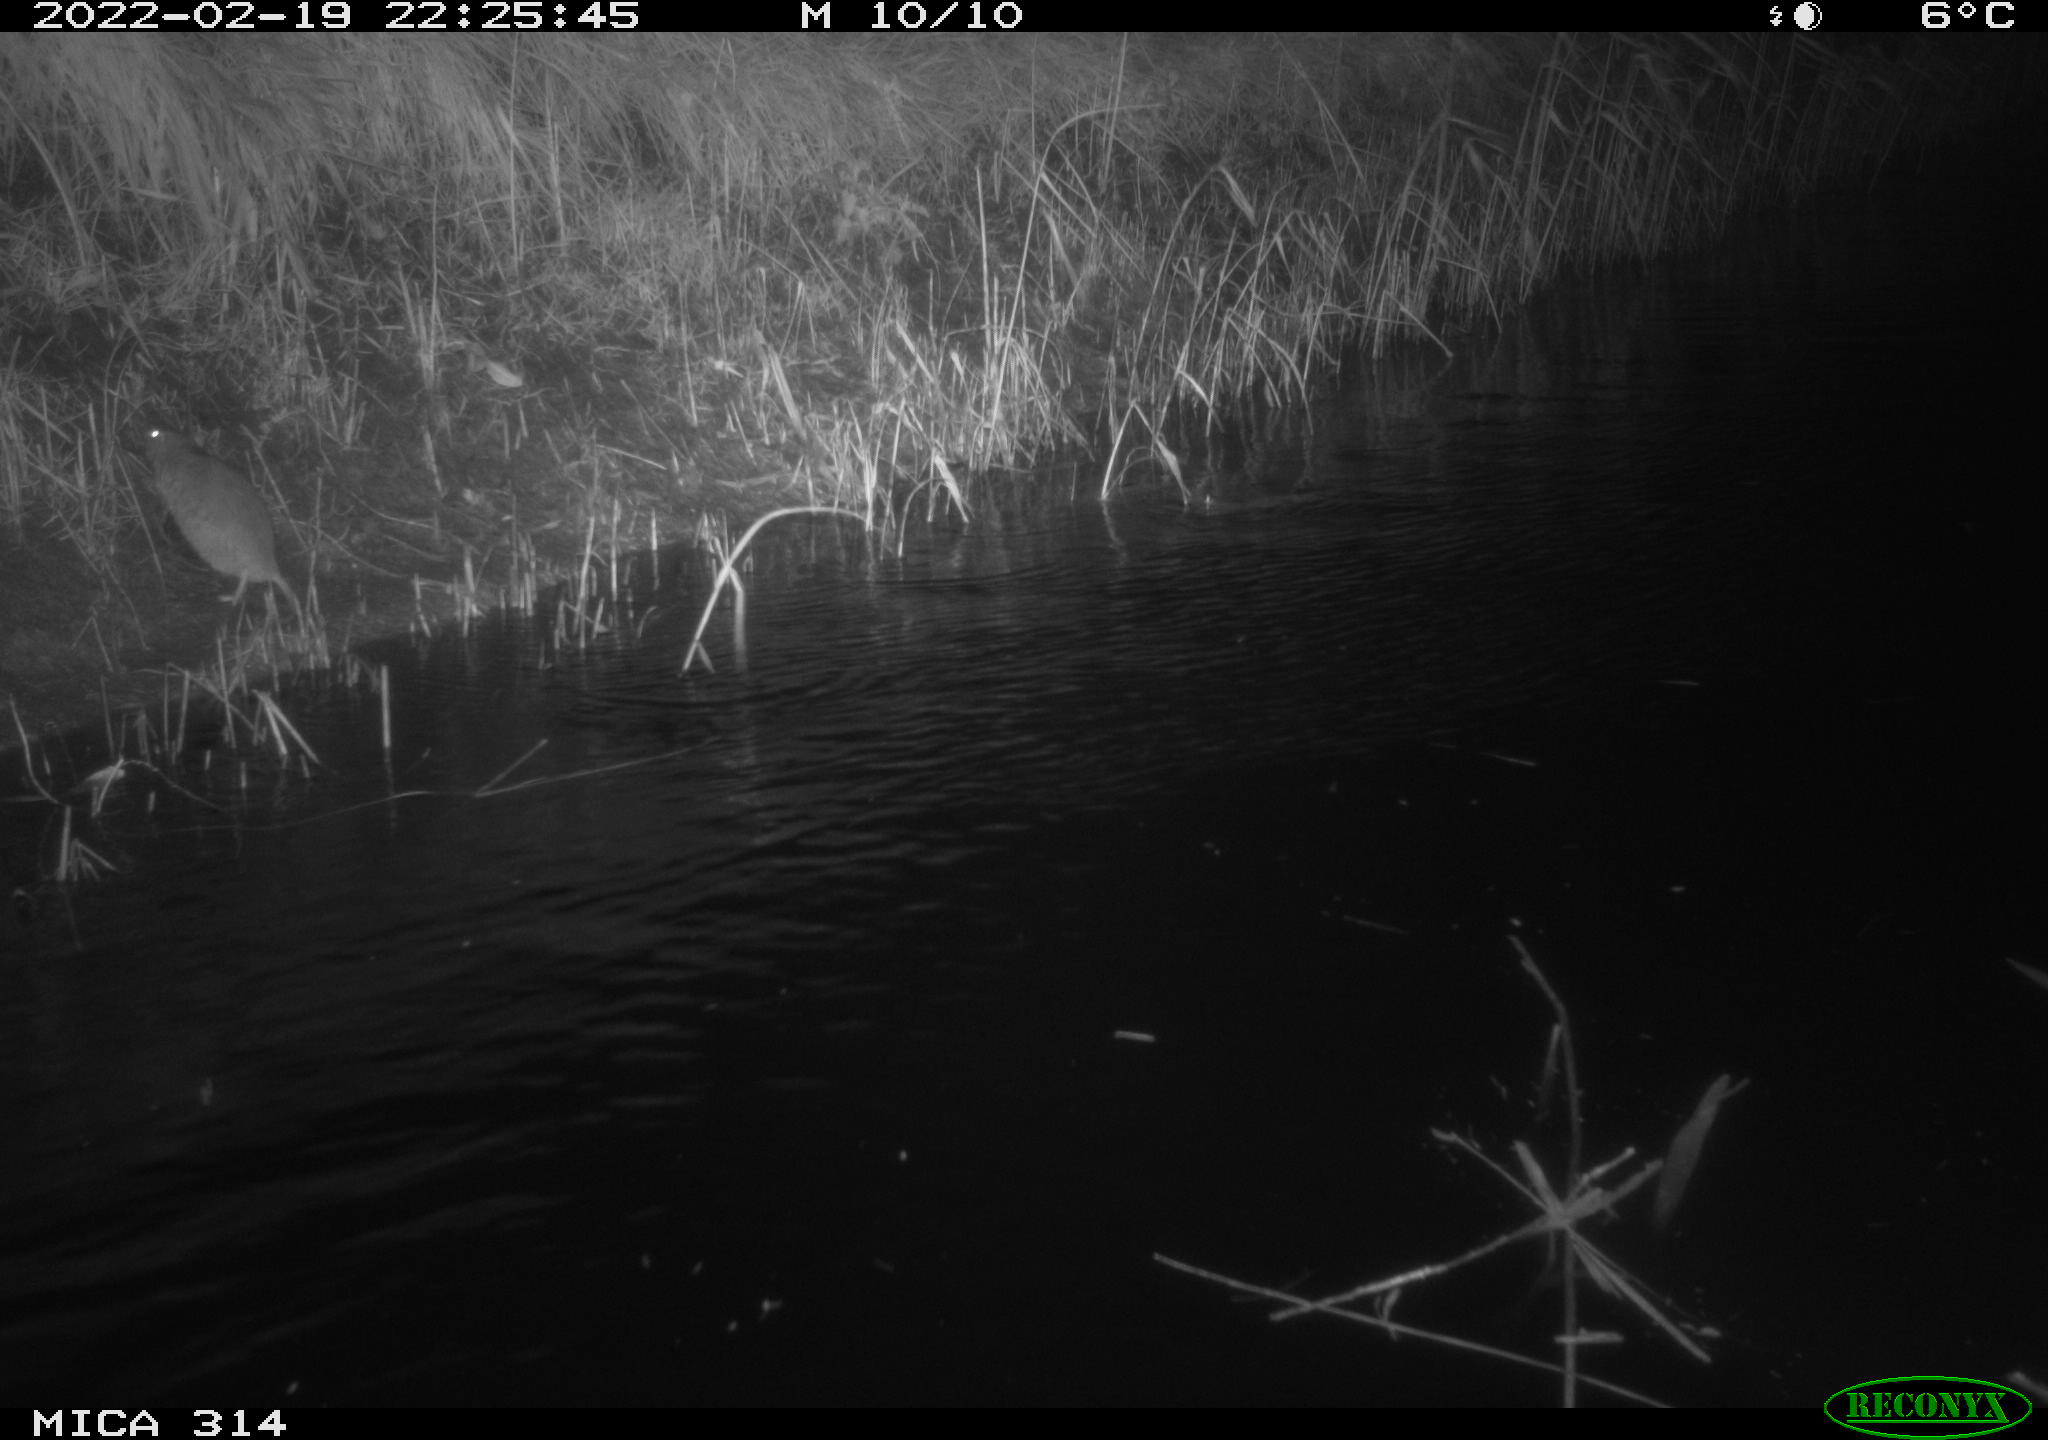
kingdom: Animalia
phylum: Chordata
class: Mammalia
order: Rodentia
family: Muridae
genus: Rattus
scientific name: Rattus norvegicus
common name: Brown rat
